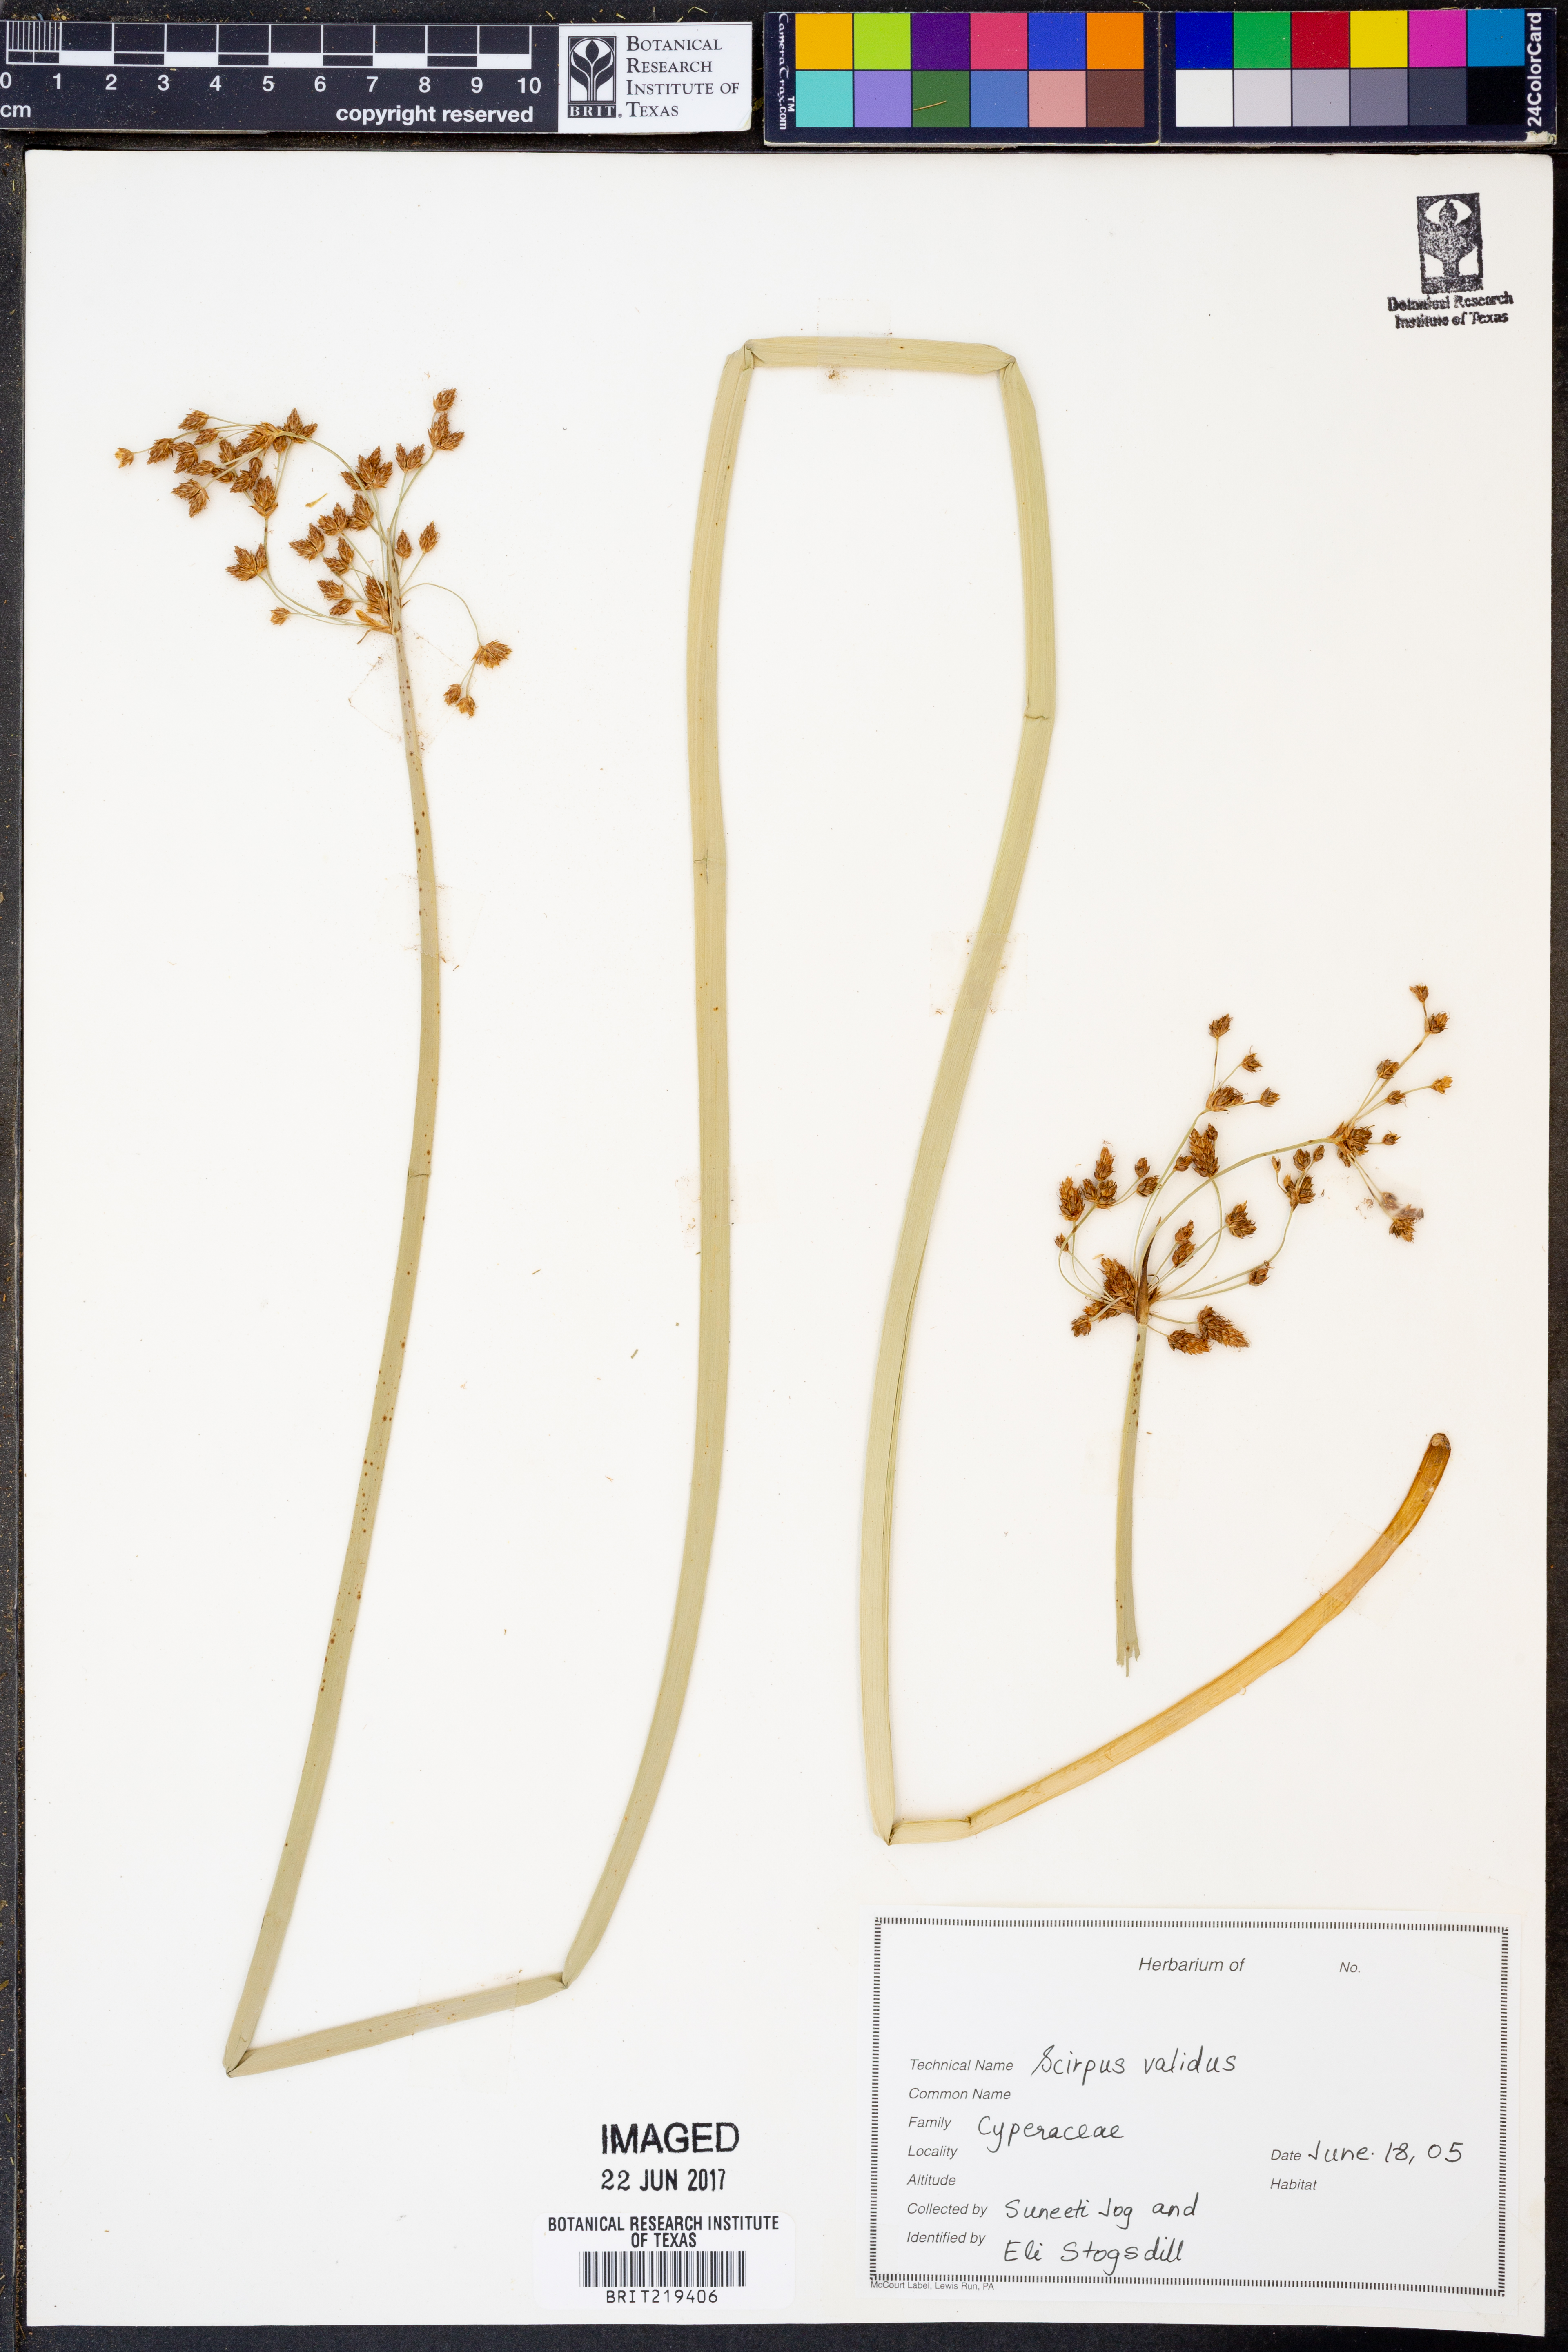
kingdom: Plantae
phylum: Tracheophyta
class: Liliopsida
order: Poales
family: Cyperaceae
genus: Schoenoplectus
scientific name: Schoenoplectus tabernaemontani
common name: Grey club-rush
